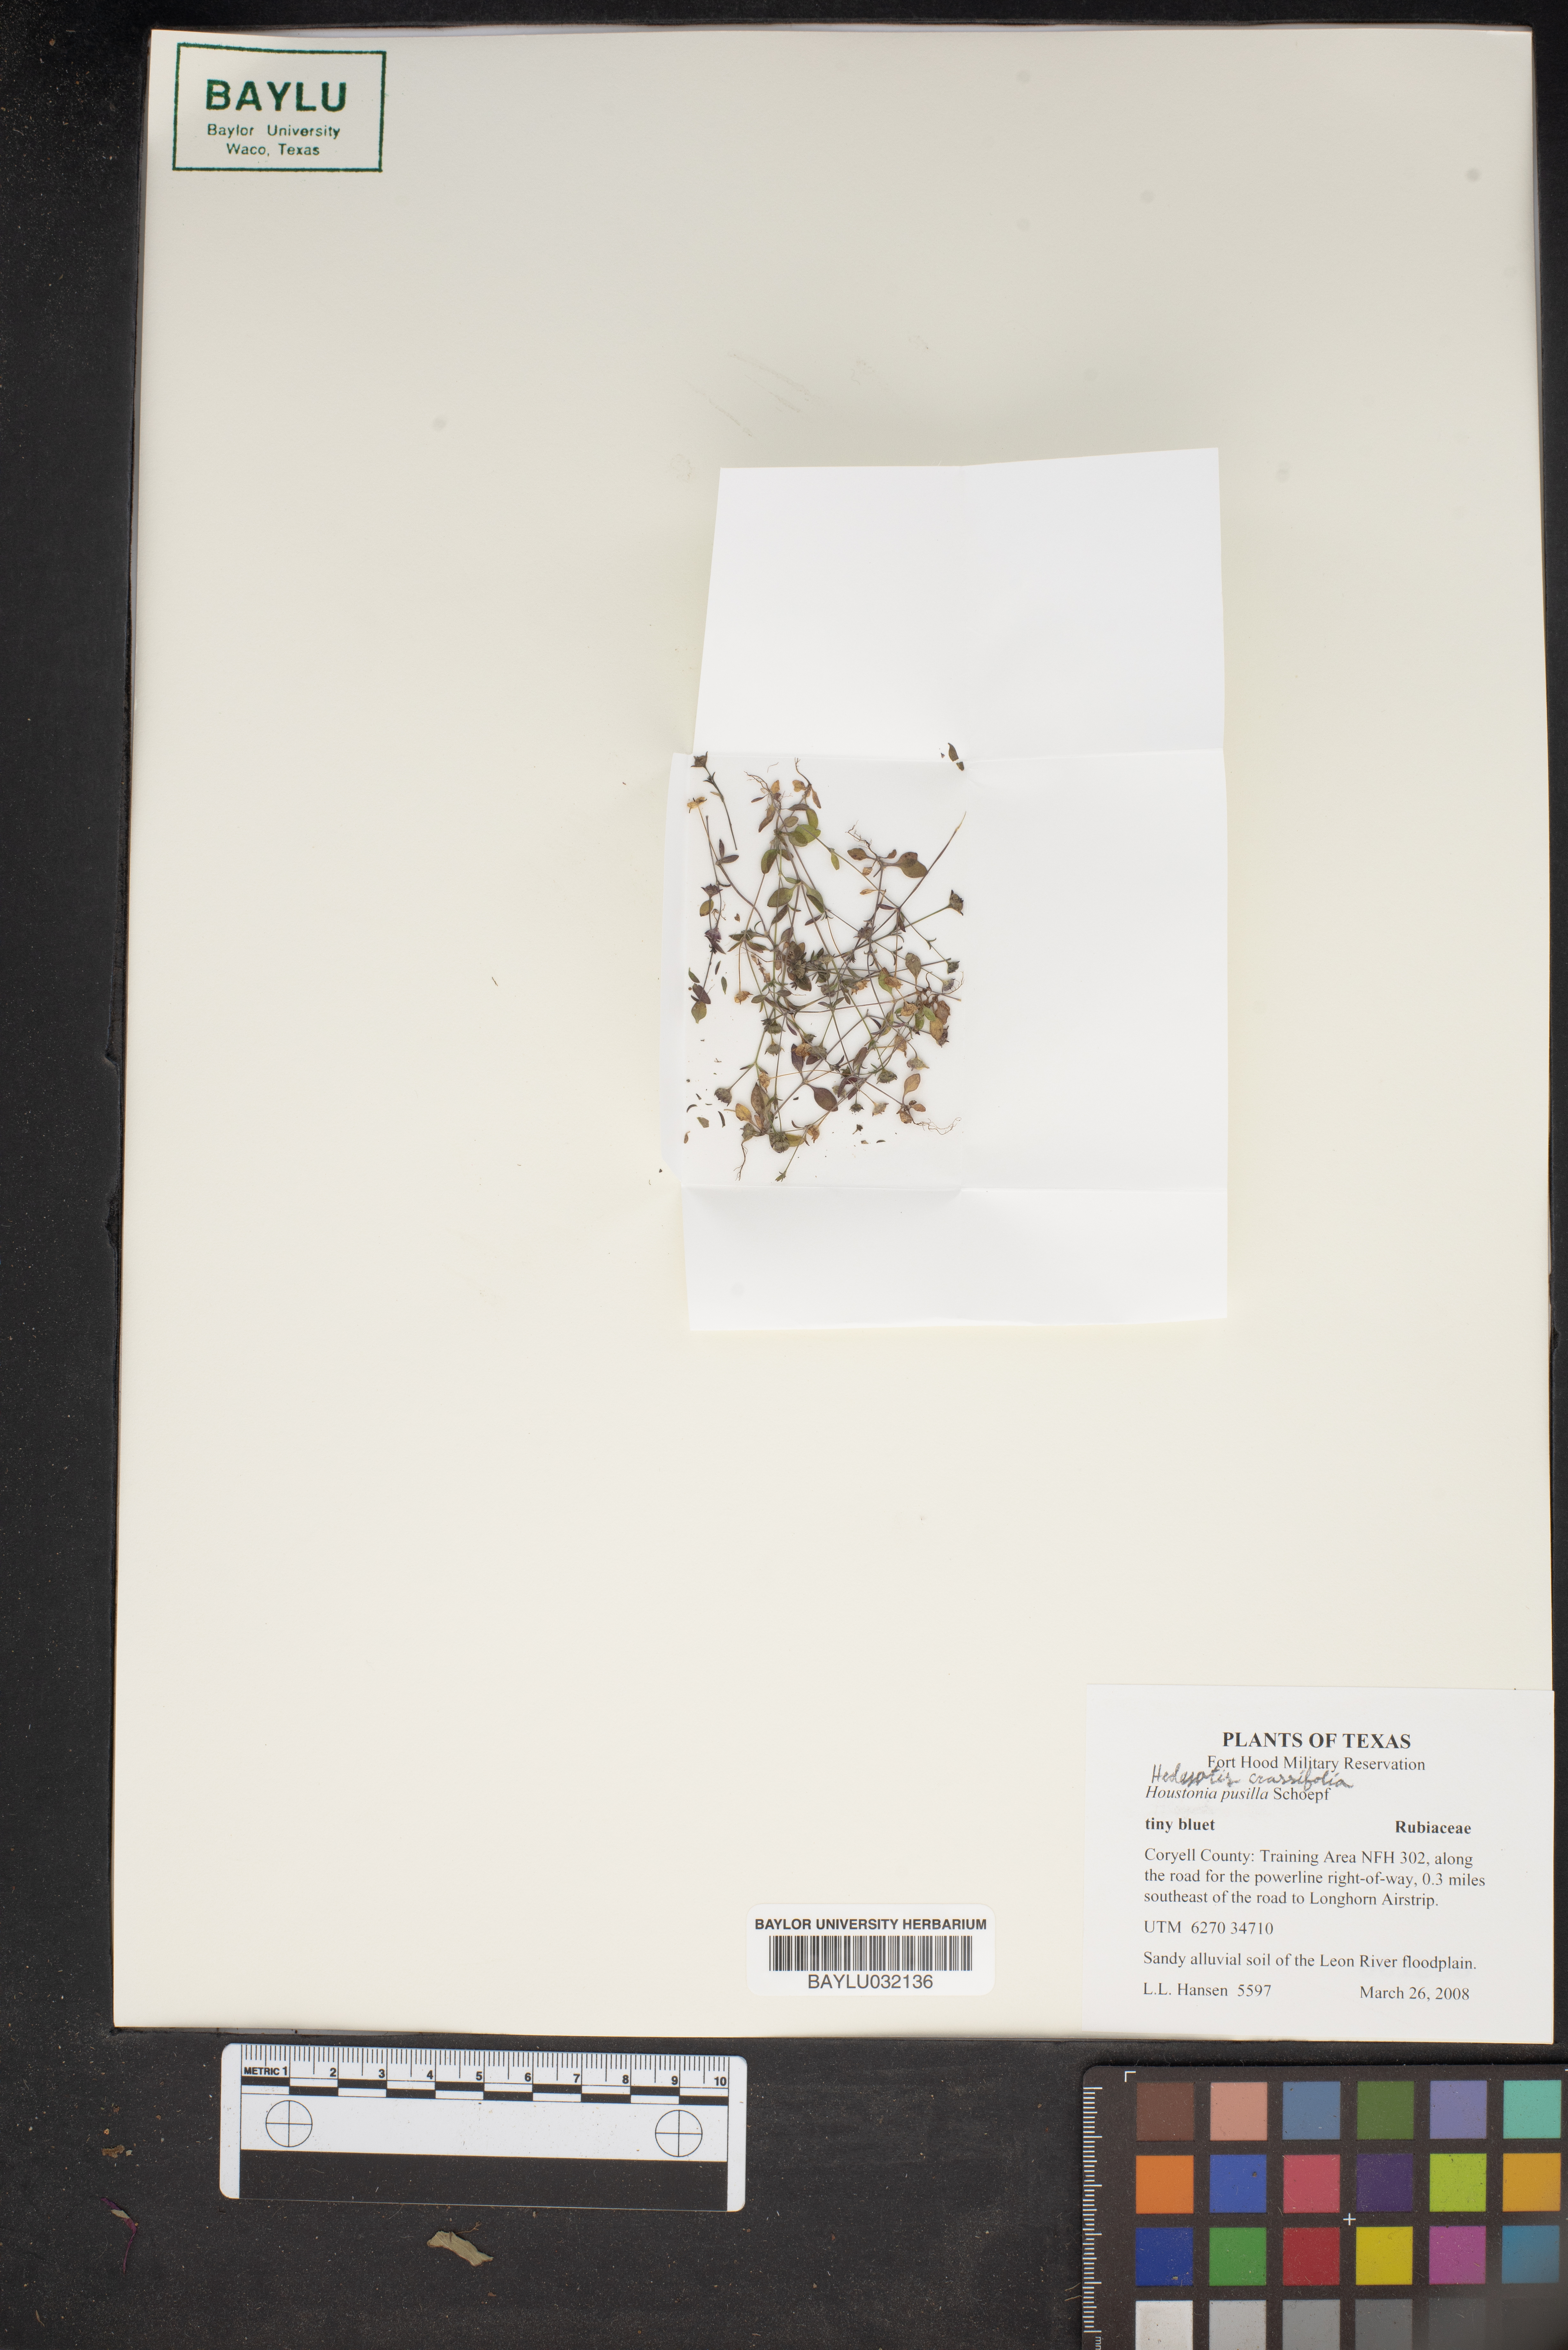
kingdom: Plantae
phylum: Tracheophyta
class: Magnoliopsida
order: Gentianales
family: Rubiaceae
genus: Houstonia
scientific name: Houstonia pusilla
